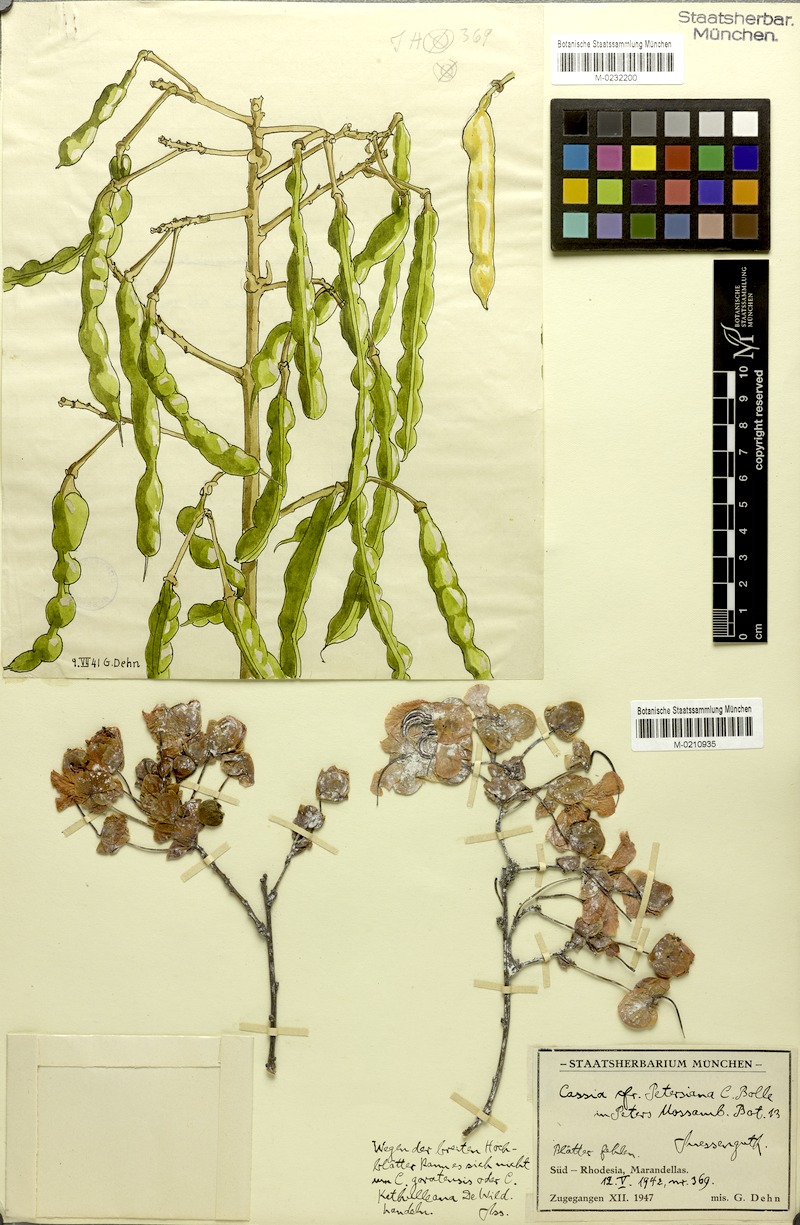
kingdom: Plantae
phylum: Tracheophyta
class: Magnoliopsida
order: Fabales
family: Fabaceae
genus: Senna
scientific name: Senna petersiana
